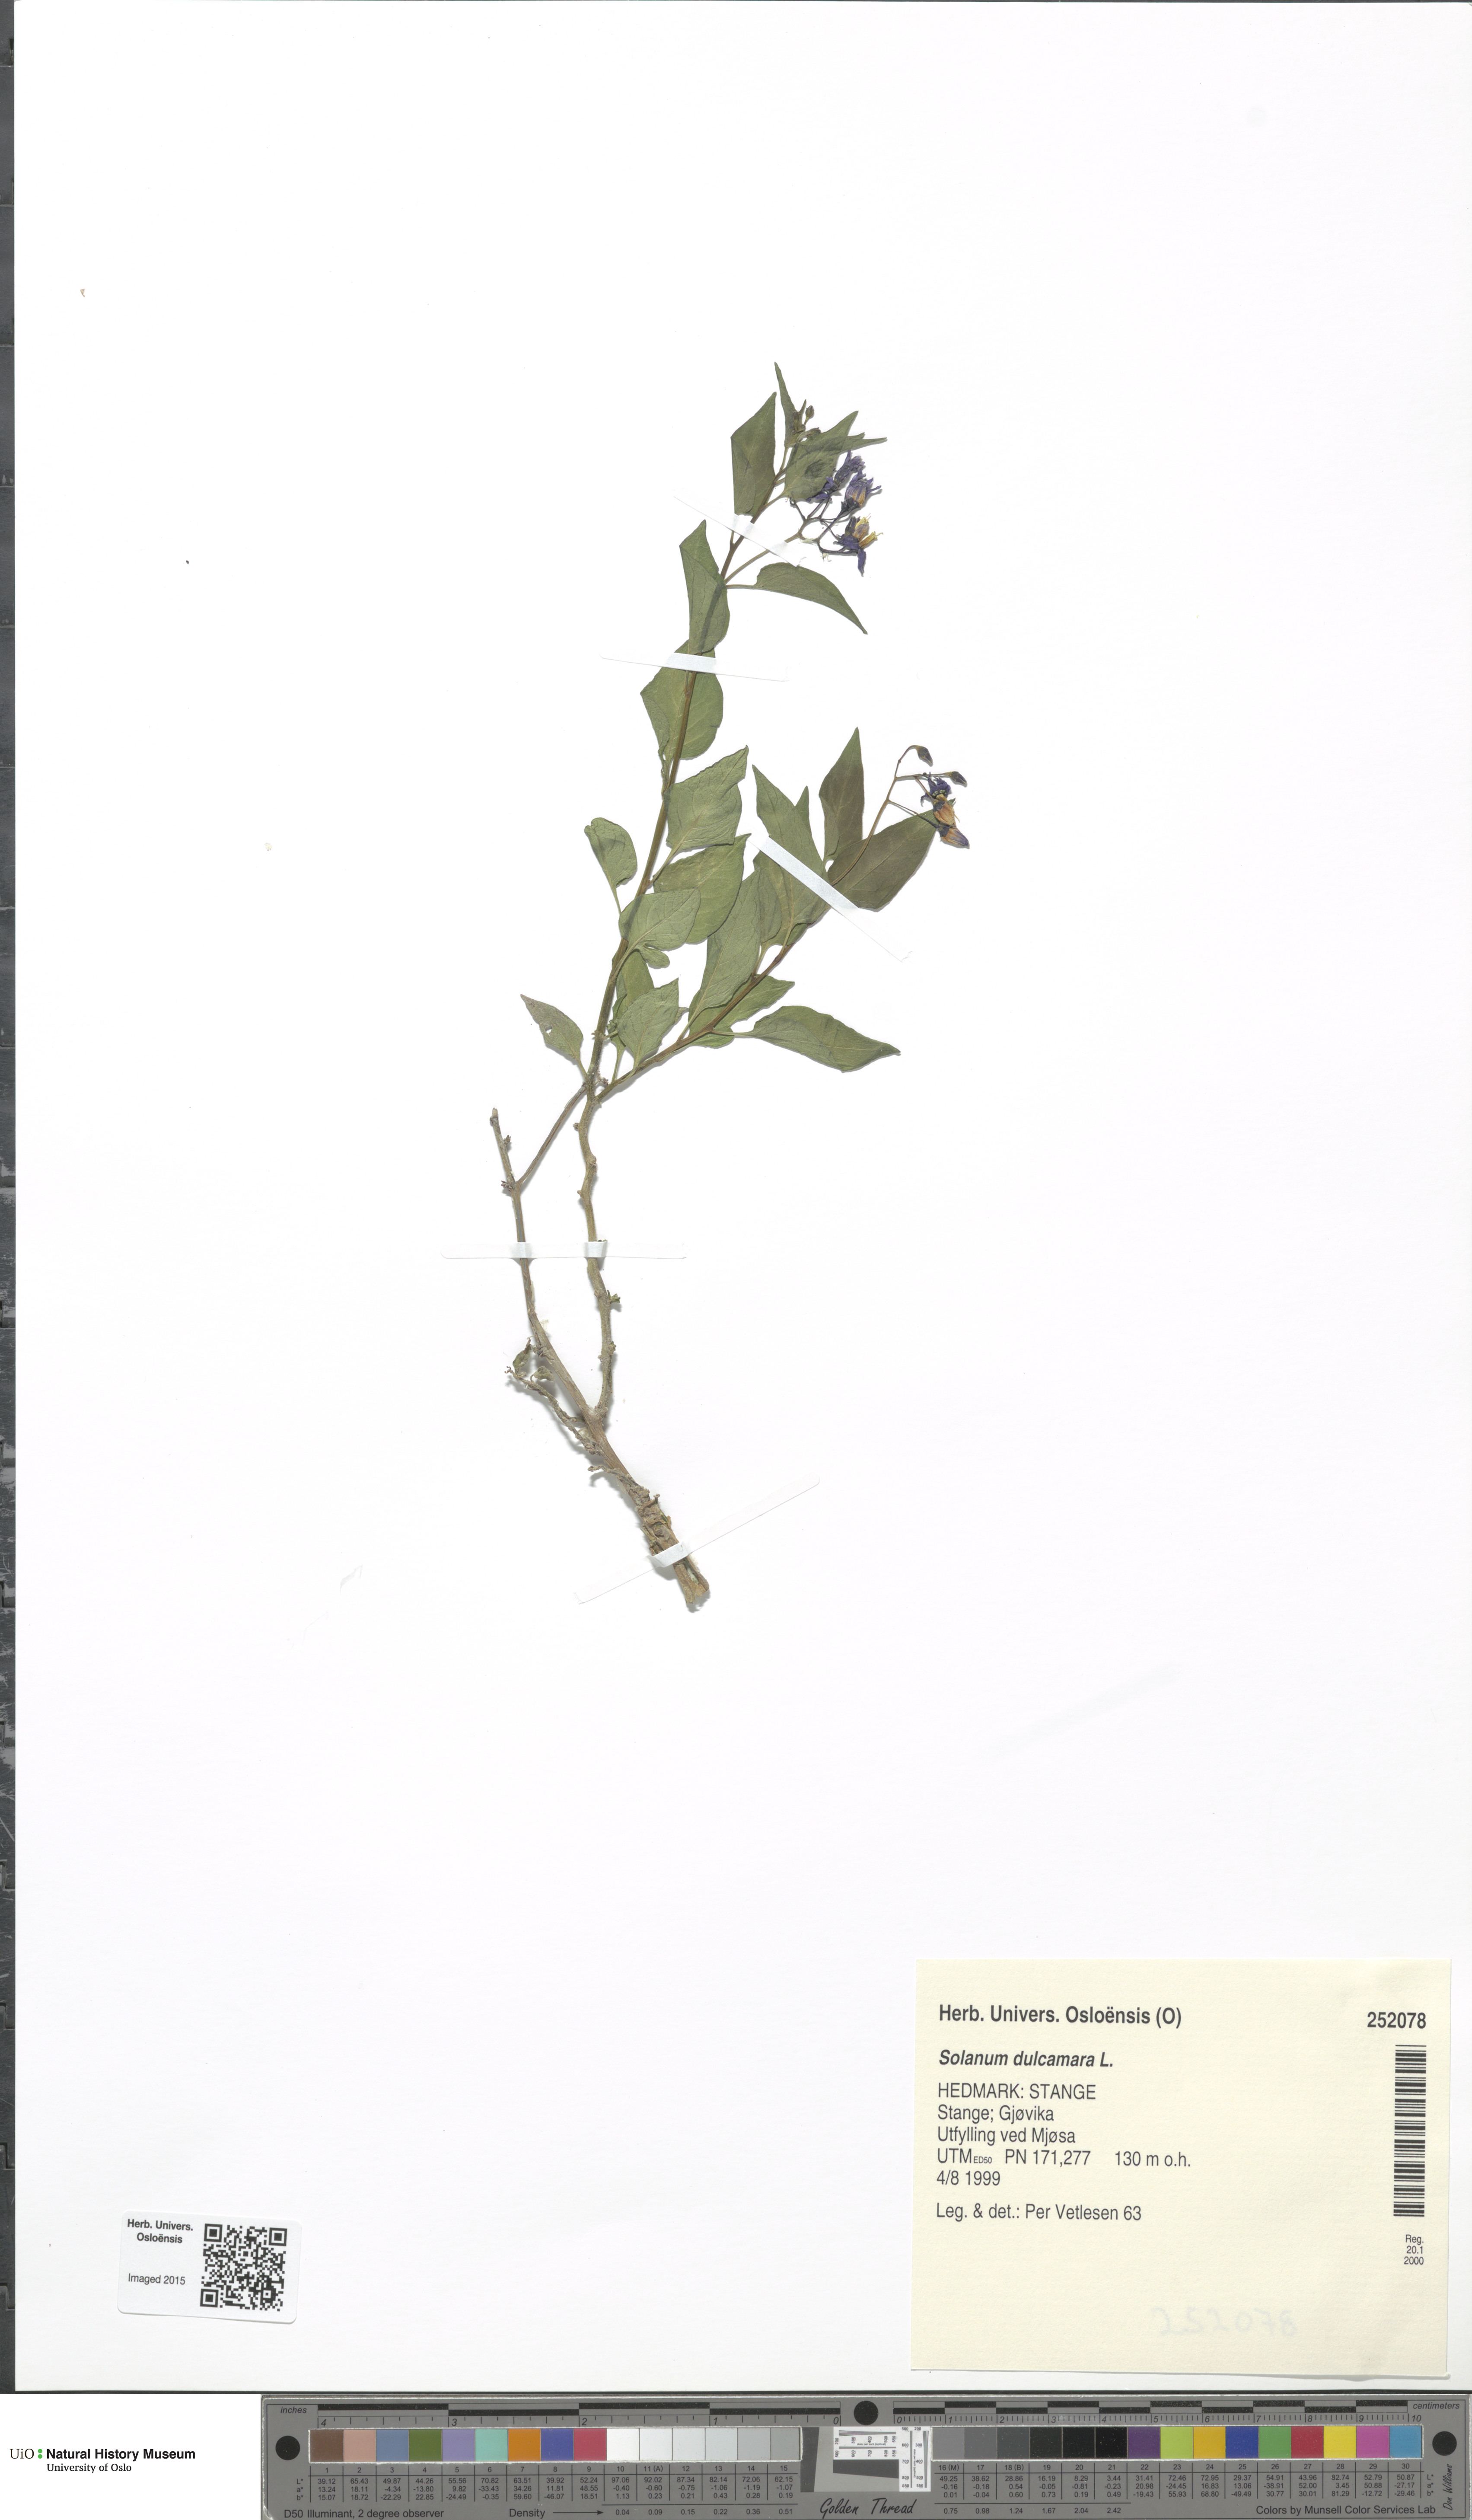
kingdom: Plantae
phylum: Tracheophyta
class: Magnoliopsida
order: Solanales
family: Solanaceae
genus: Solanum
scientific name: Solanum dulcamara
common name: Climbing nightshade
